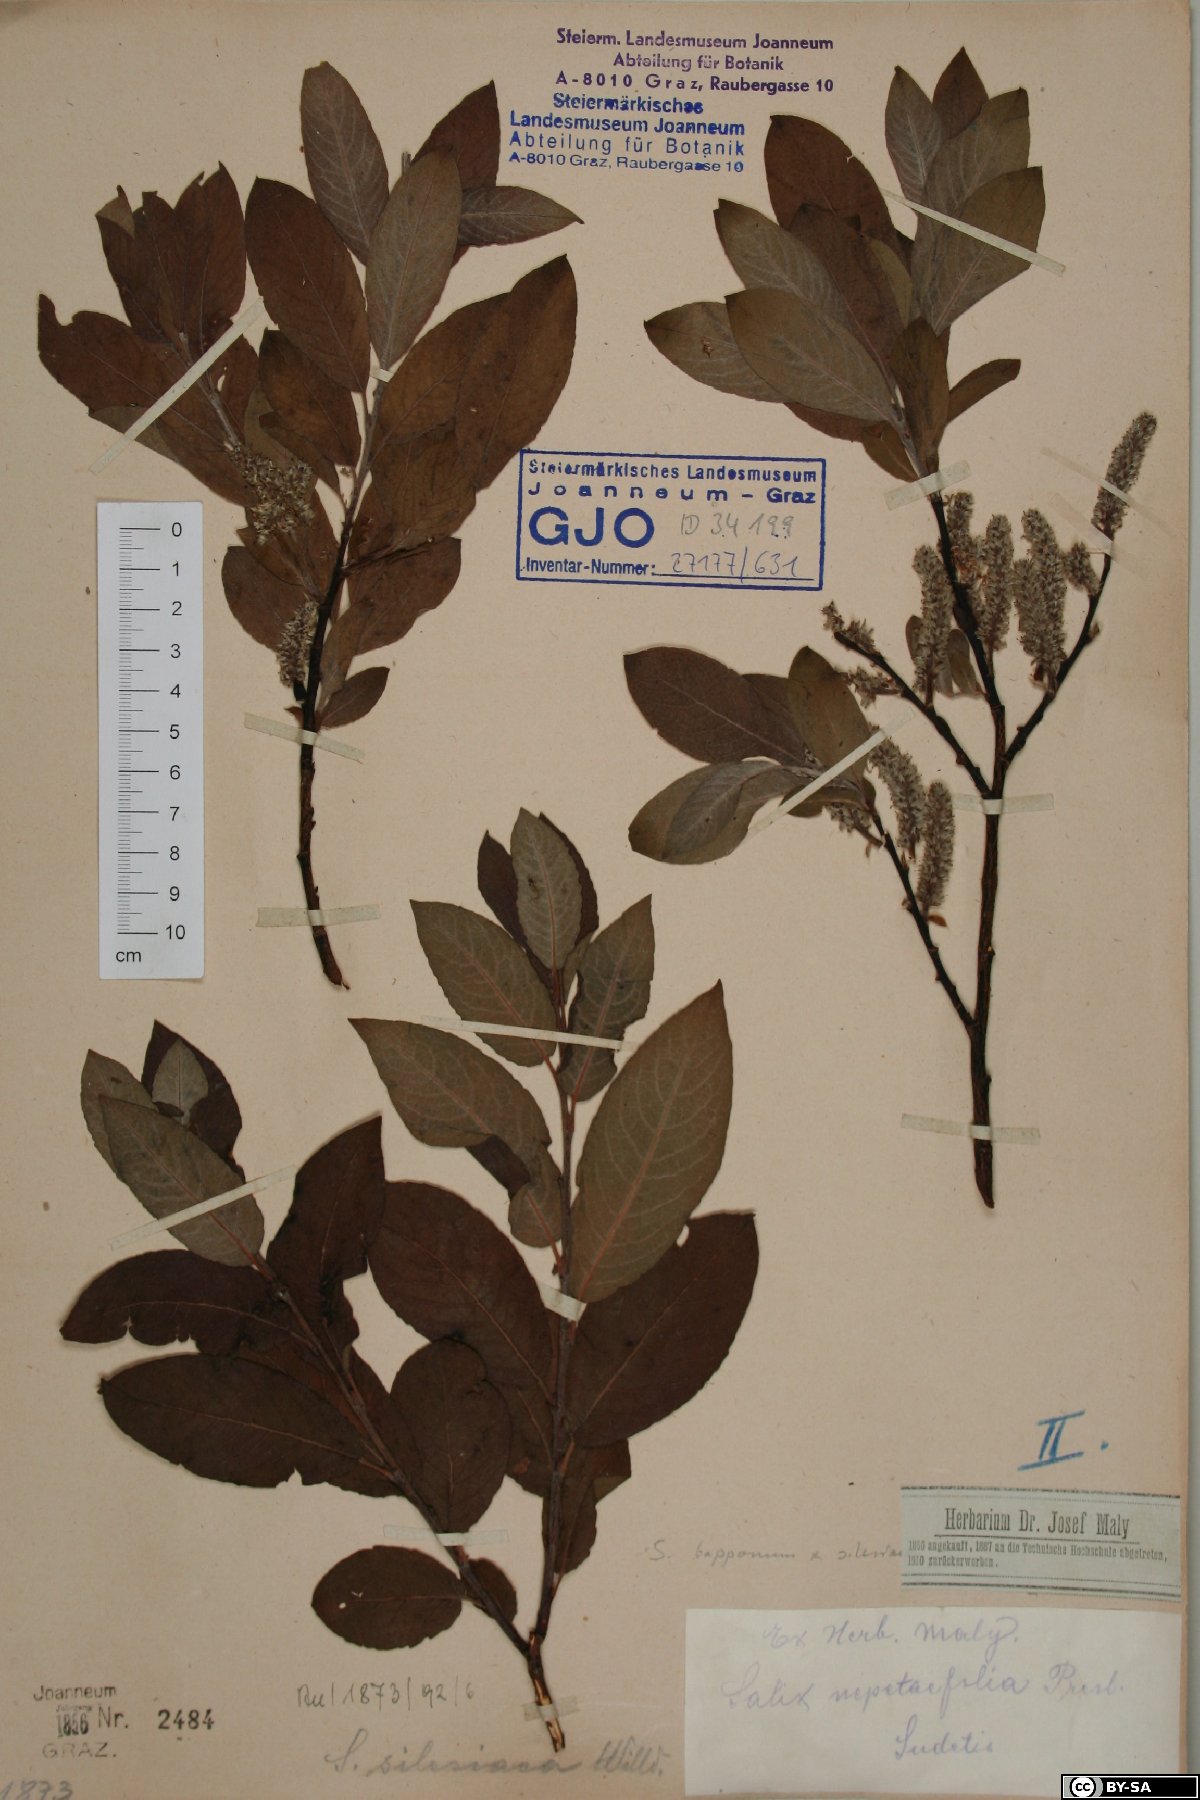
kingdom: Plantae
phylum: Tracheophyta
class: Magnoliopsida
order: Malpighiales
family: Salicaceae
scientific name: Salicaceae
